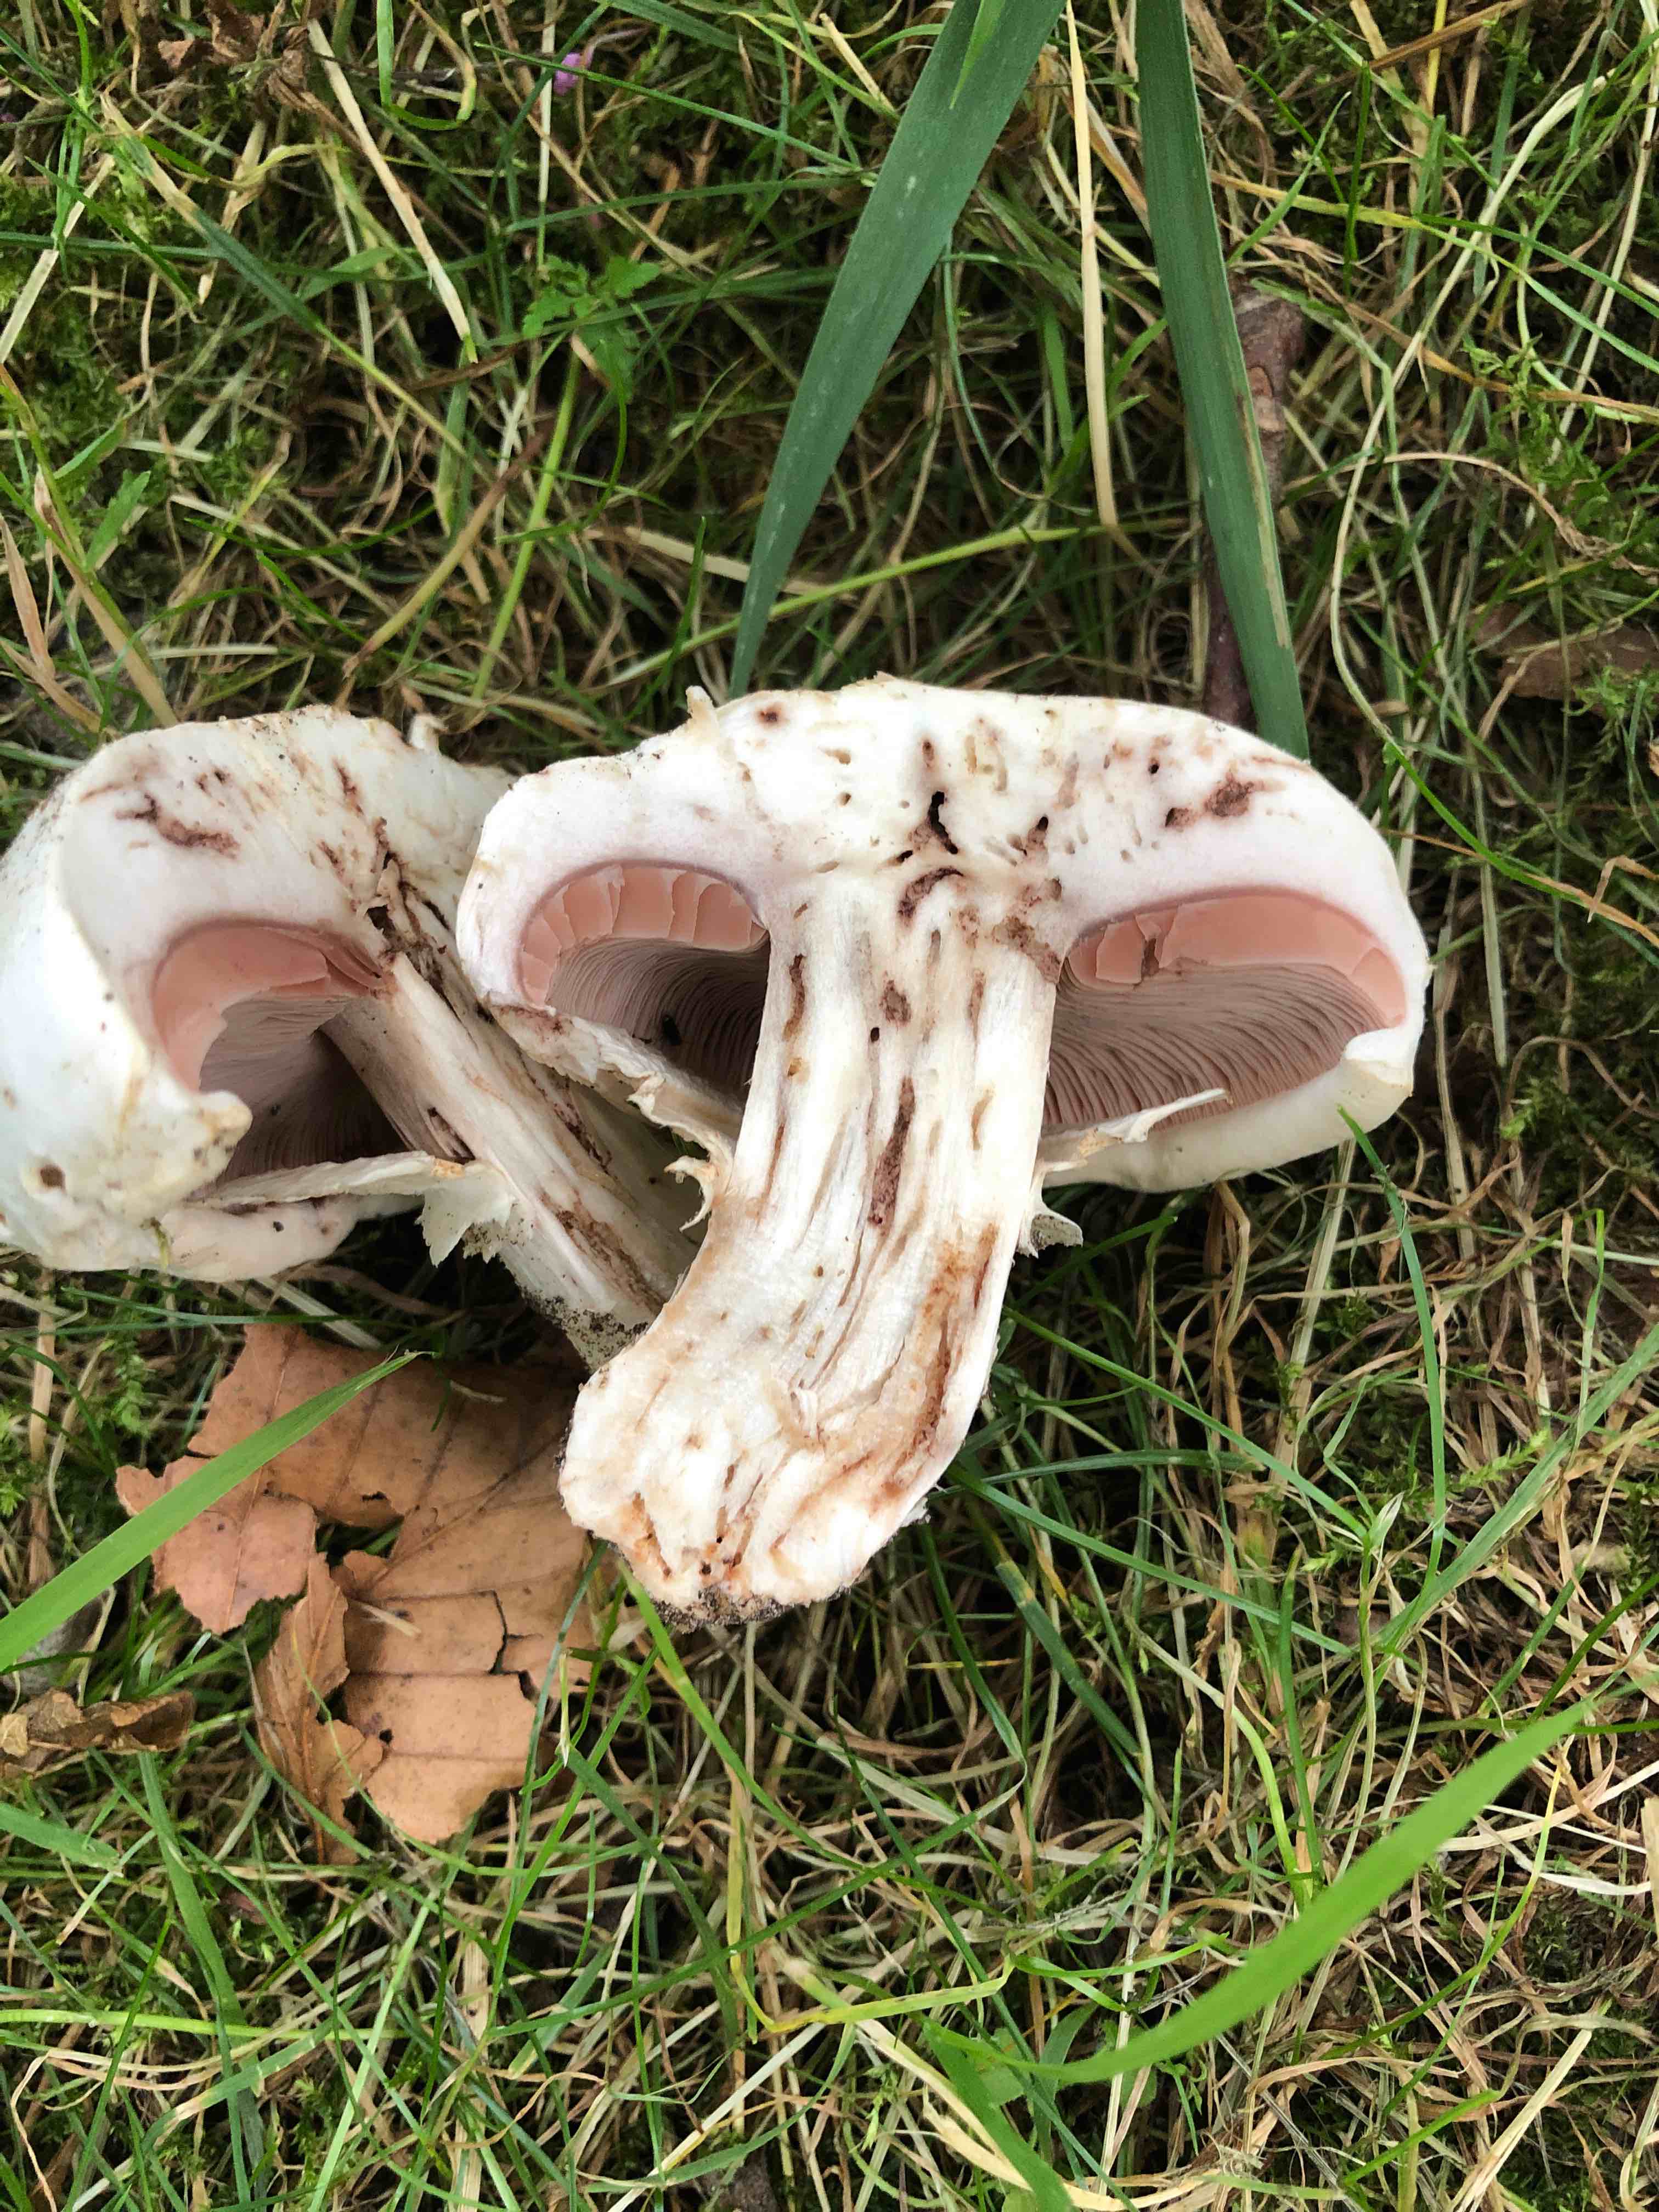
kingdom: Fungi
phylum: Basidiomycota
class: Agaricomycetes
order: Agaricales
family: Agaricaceae
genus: Agaricus
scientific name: Agaricus bitorquis
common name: vej-champignon
